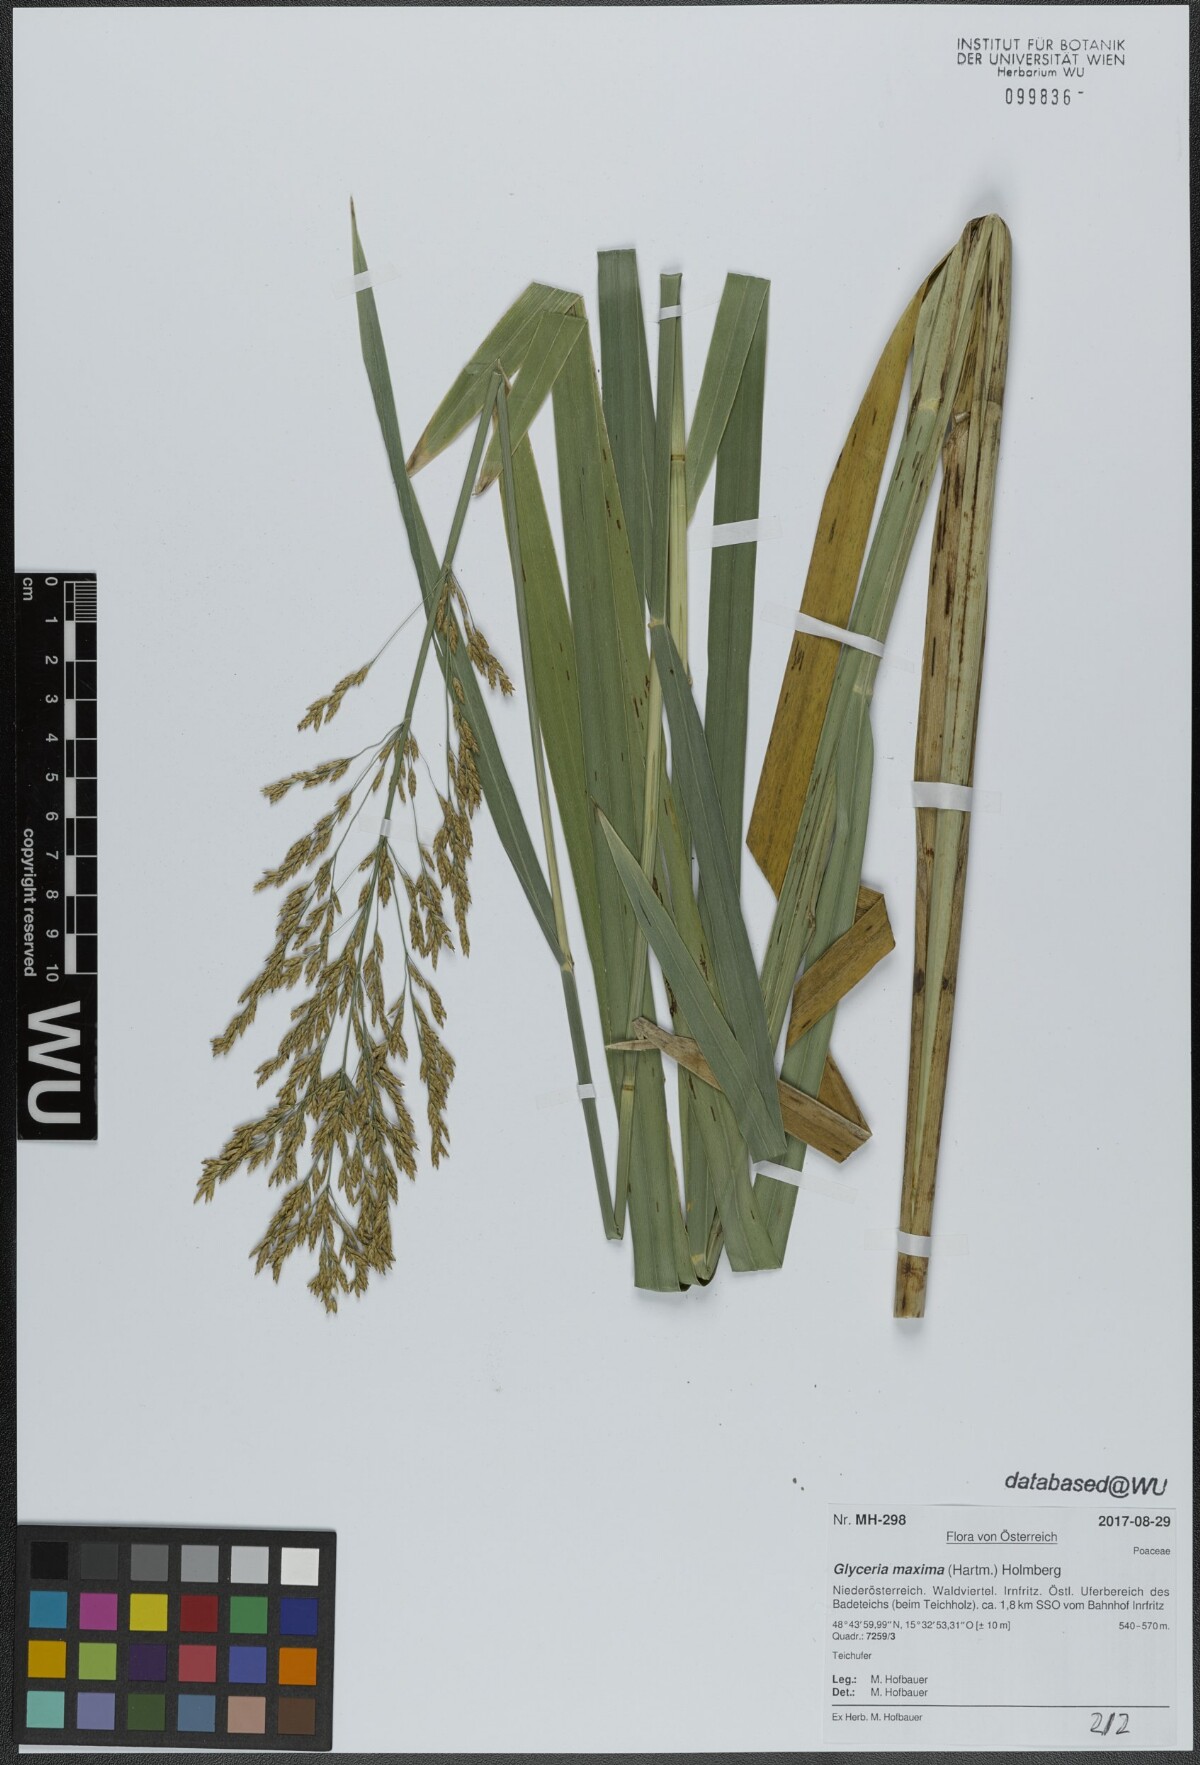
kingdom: Plantae
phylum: Tracheophyta
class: Liliopsida
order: Poales
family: Poaceae
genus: Glyceria
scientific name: Glyceria maxima
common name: Reed mannagrass
